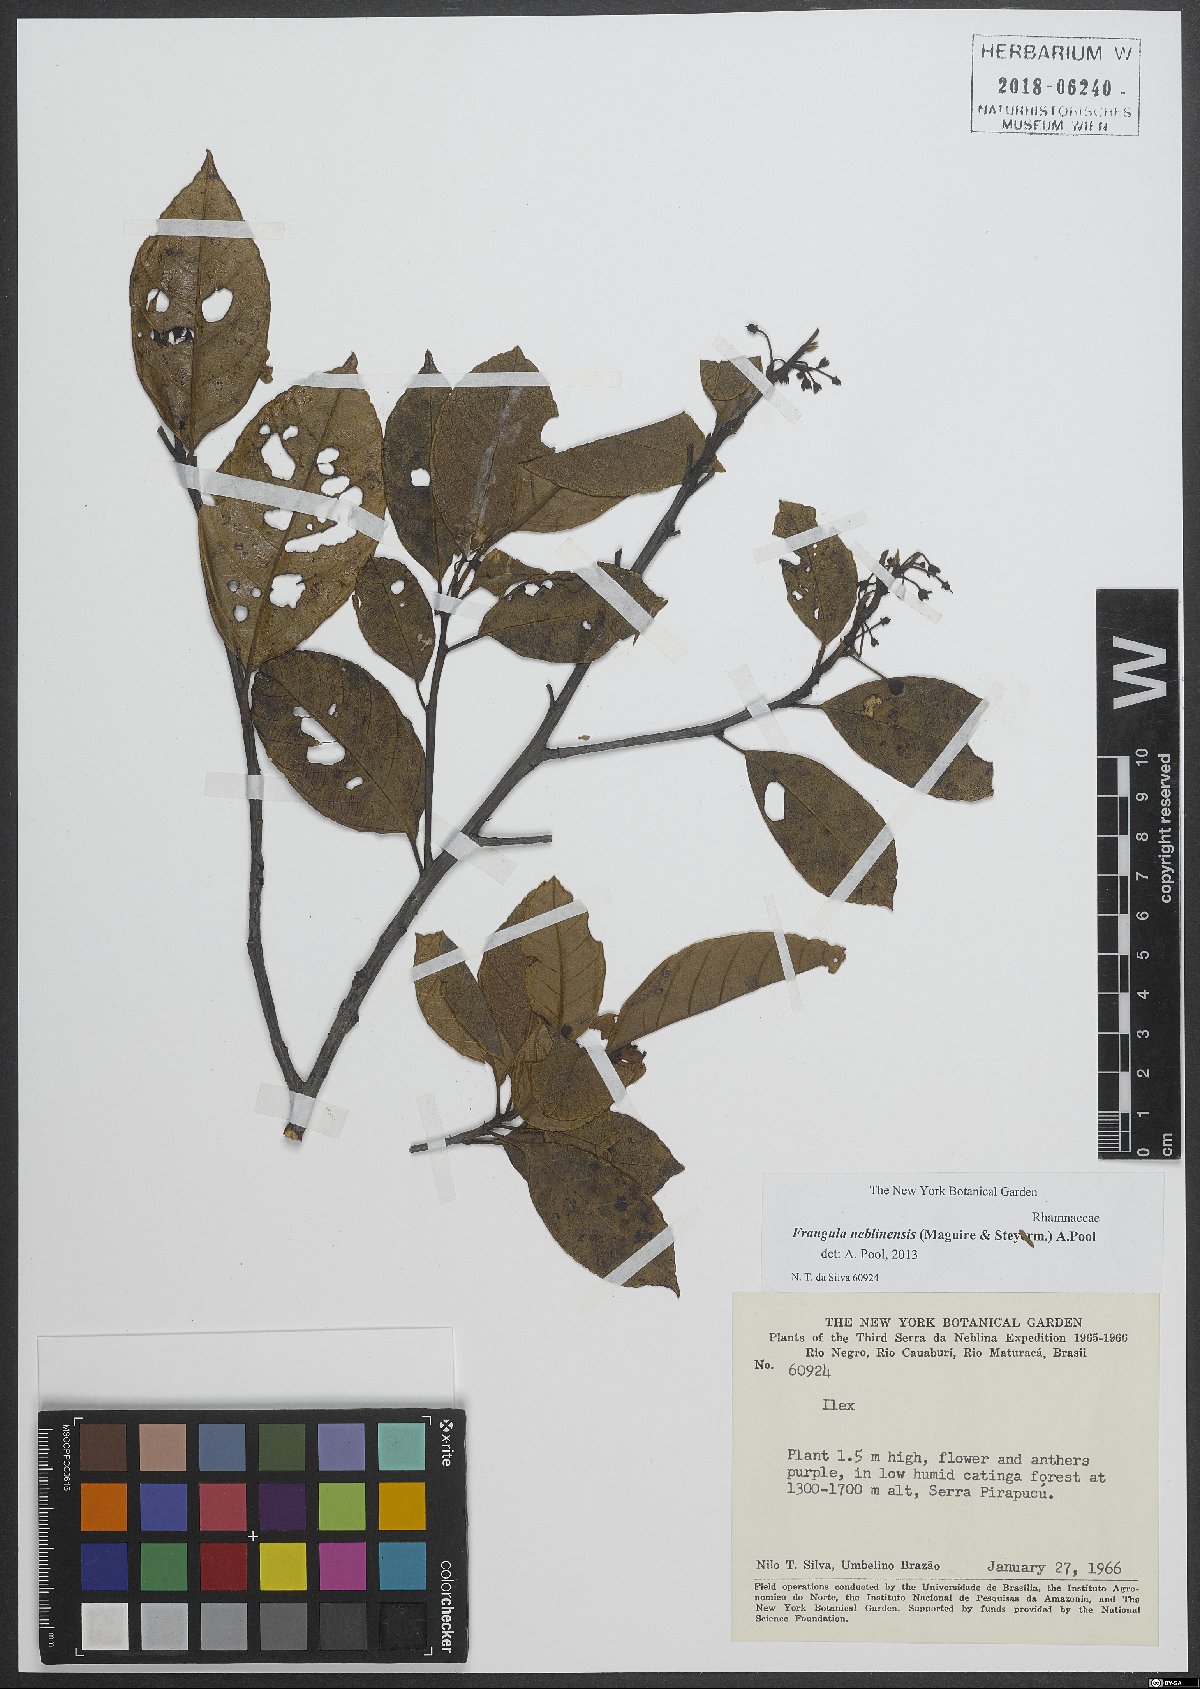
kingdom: Plantae
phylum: Tracheophyta
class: Magnoliopsida
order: Rosales
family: Rhamnaceae
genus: Frangula
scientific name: Frangula neblinensis
